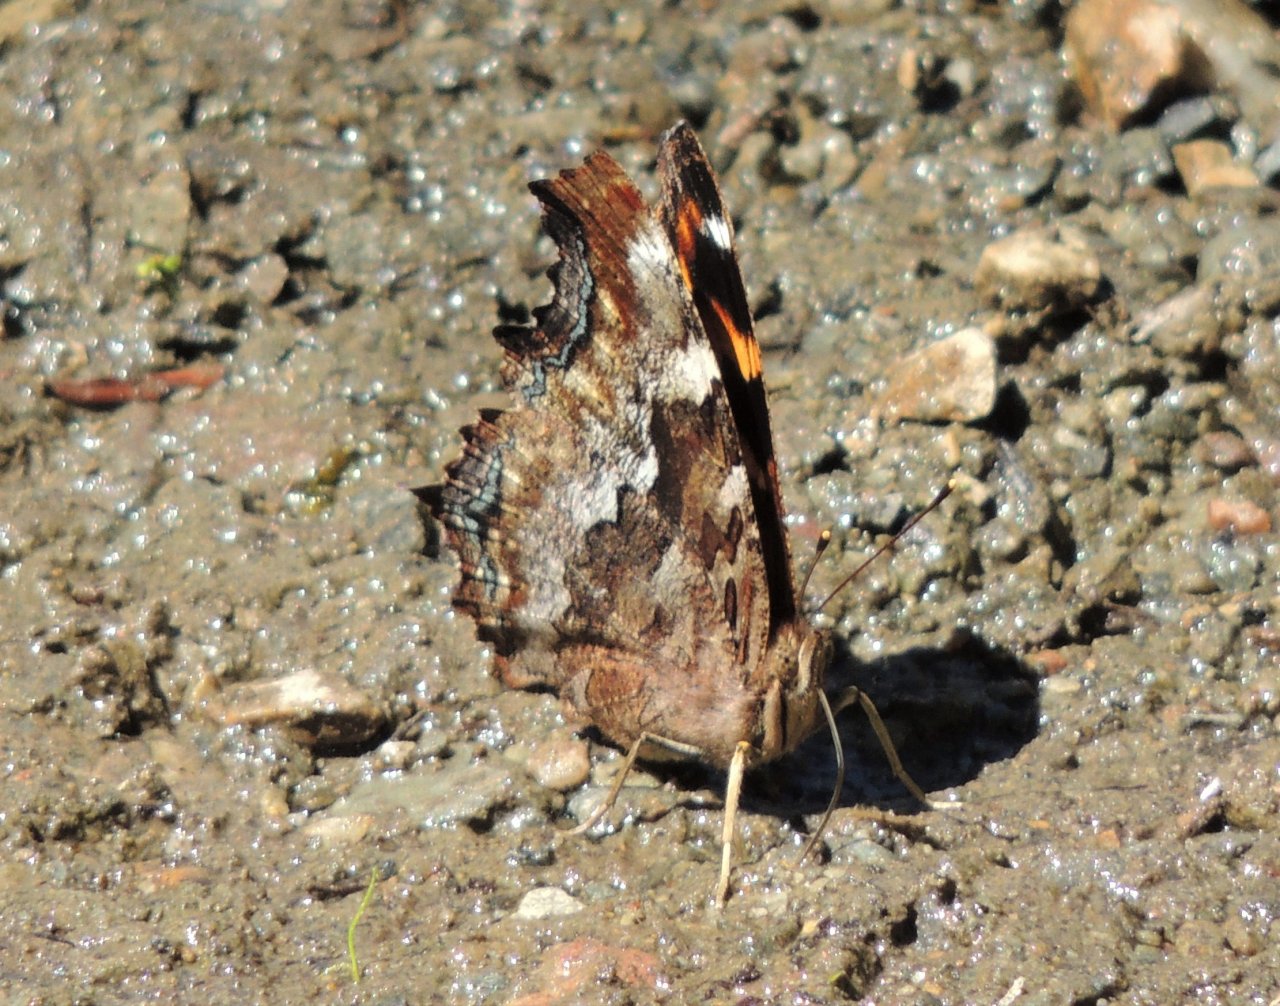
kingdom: Animalia
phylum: Arthropoda
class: Insecta
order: Lepidoptera
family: Nymphalidae
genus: Polygonia
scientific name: Polygonia vaualbum
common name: Compton Tortoiseshell
